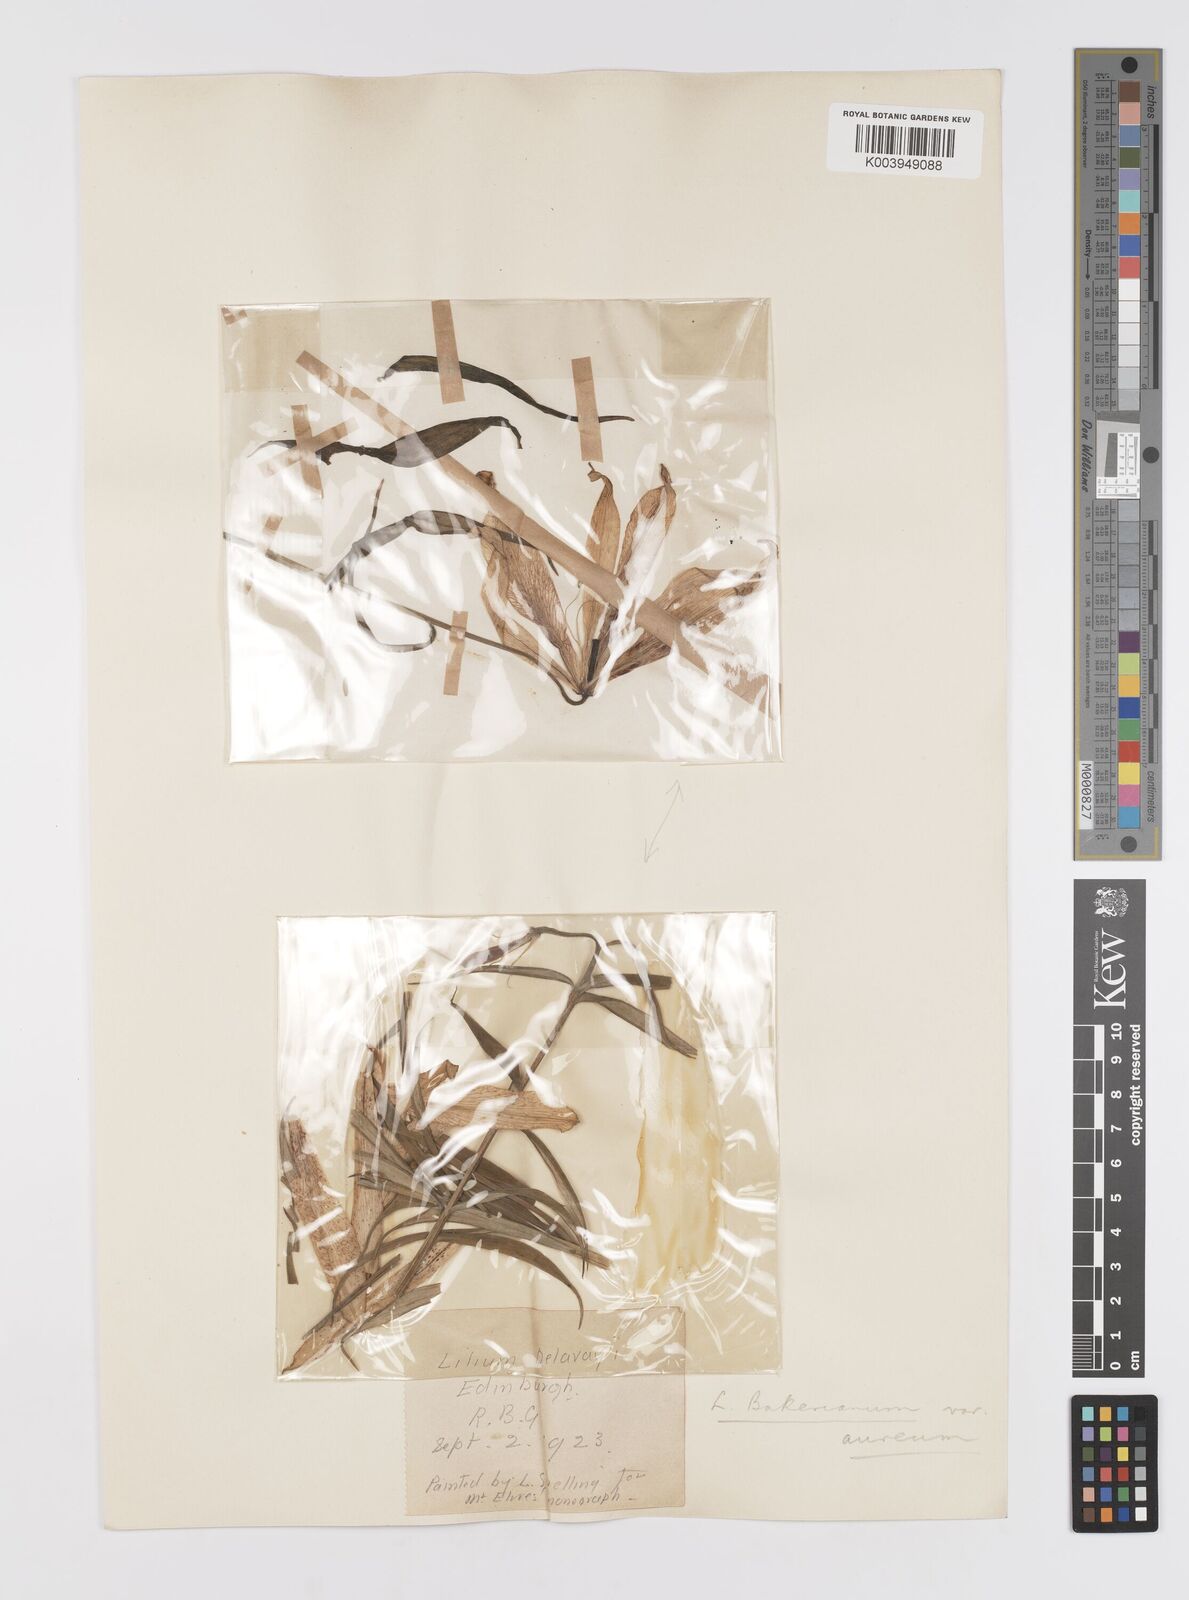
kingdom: Plantae
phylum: Tracheophyta
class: Liliopsida
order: Liliales
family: Liliaceae
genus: Lilium
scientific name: Lilium bakerianum
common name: Baker's lily
